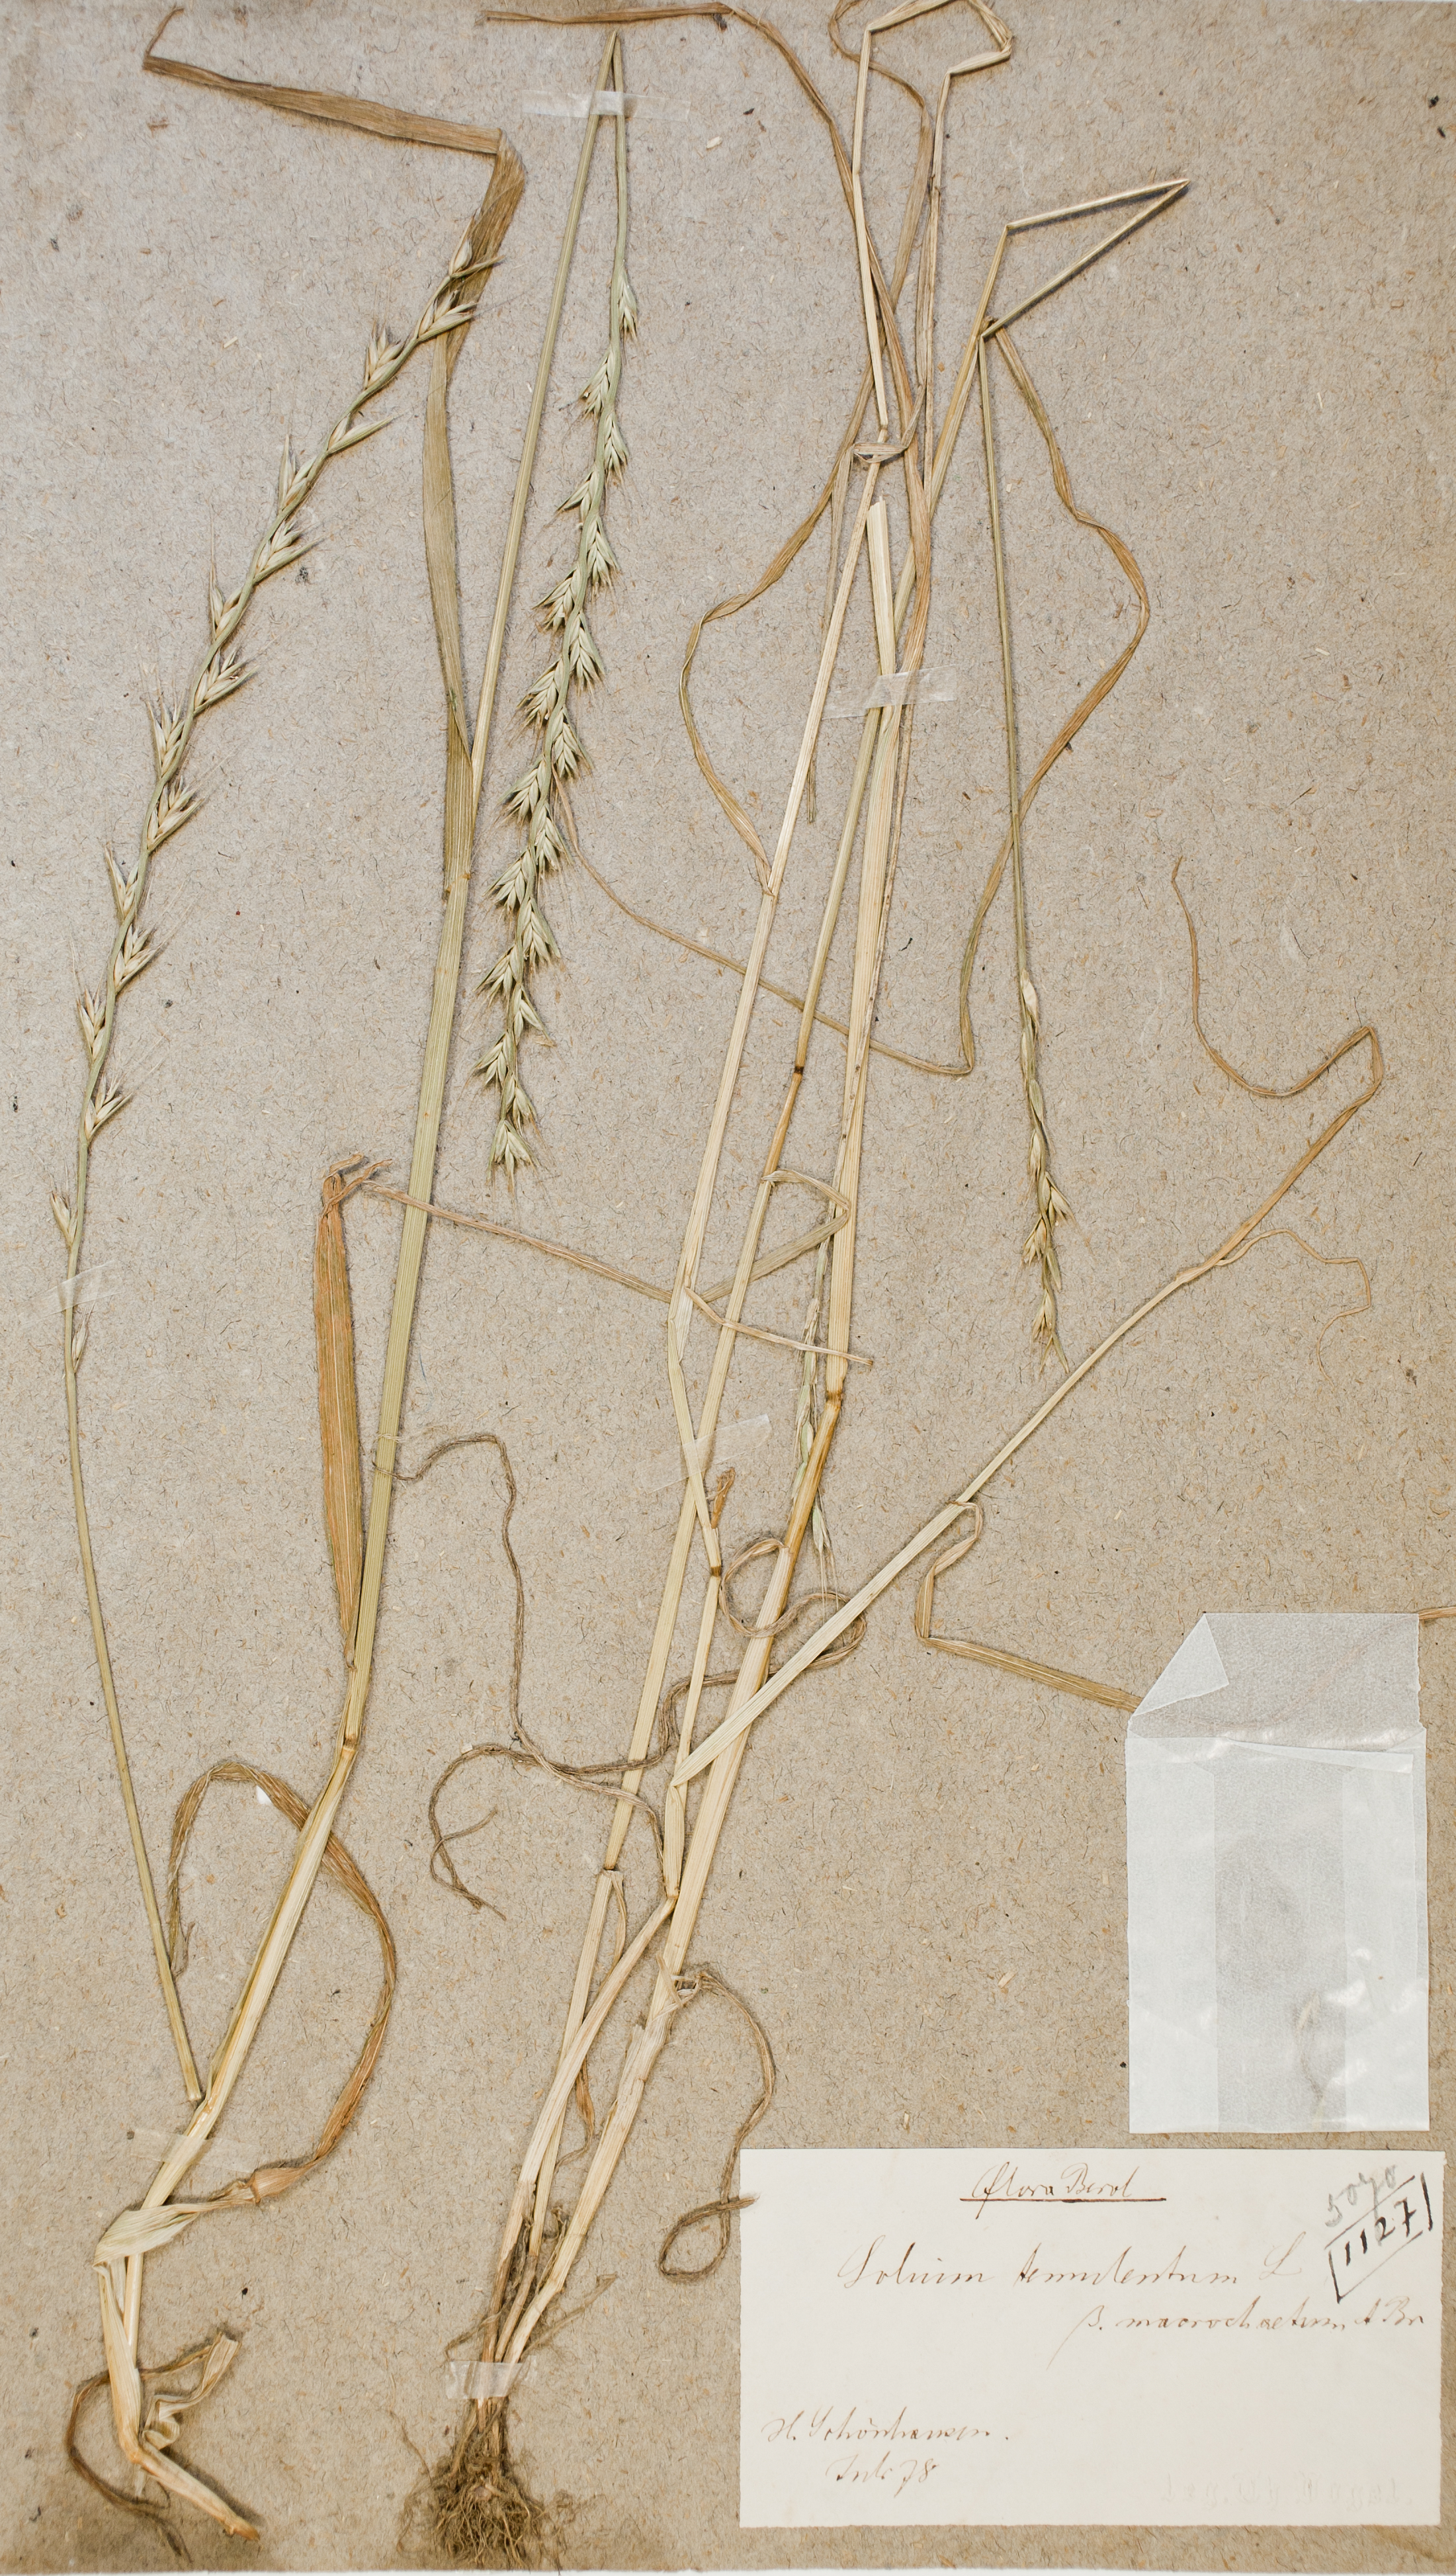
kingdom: Plantae
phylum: Tracheophyta
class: Liliopsida
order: Poales
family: Poaceae
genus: Lolium
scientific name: Lolium temulentum
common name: Darnel
